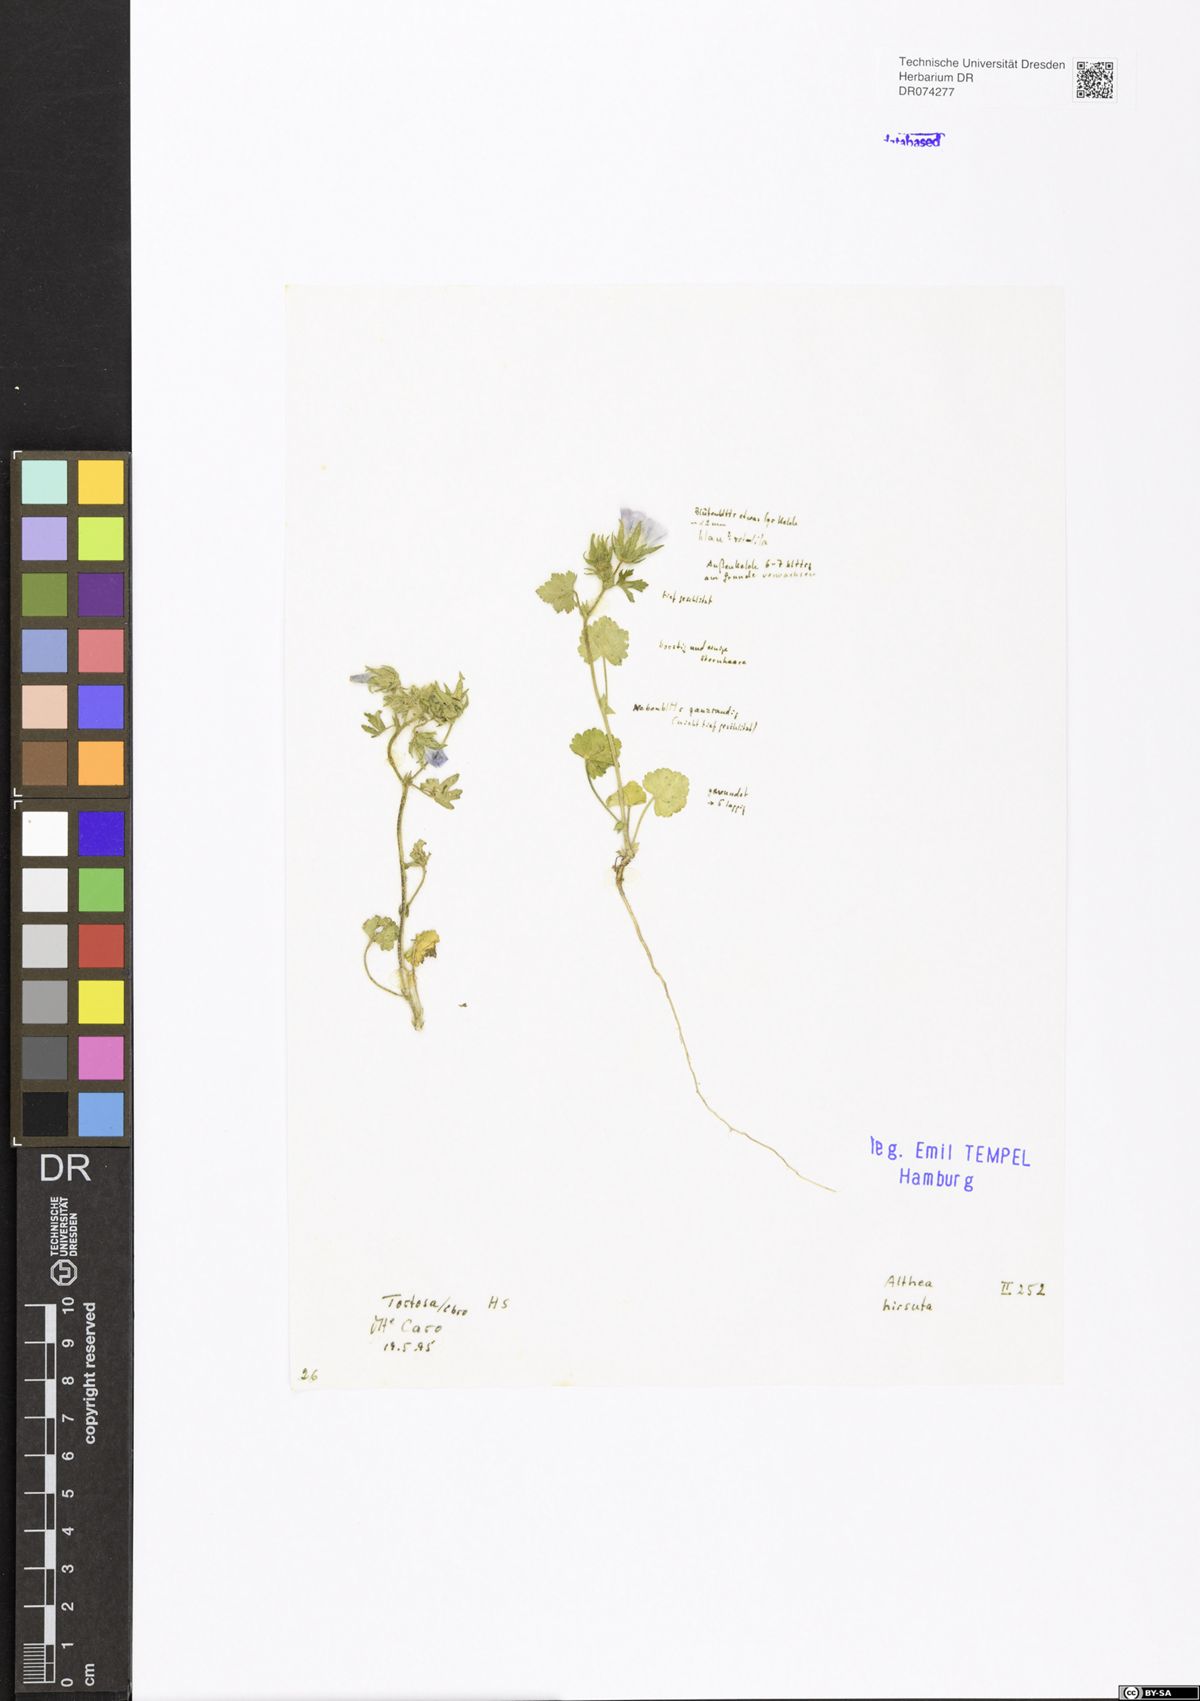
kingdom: Plantae
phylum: Tracheophyta
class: Magnoliopsida
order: Malvales
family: Malvaceae
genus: Althaea
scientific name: Althaea hirsuta
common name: Rough marsh-mallow
